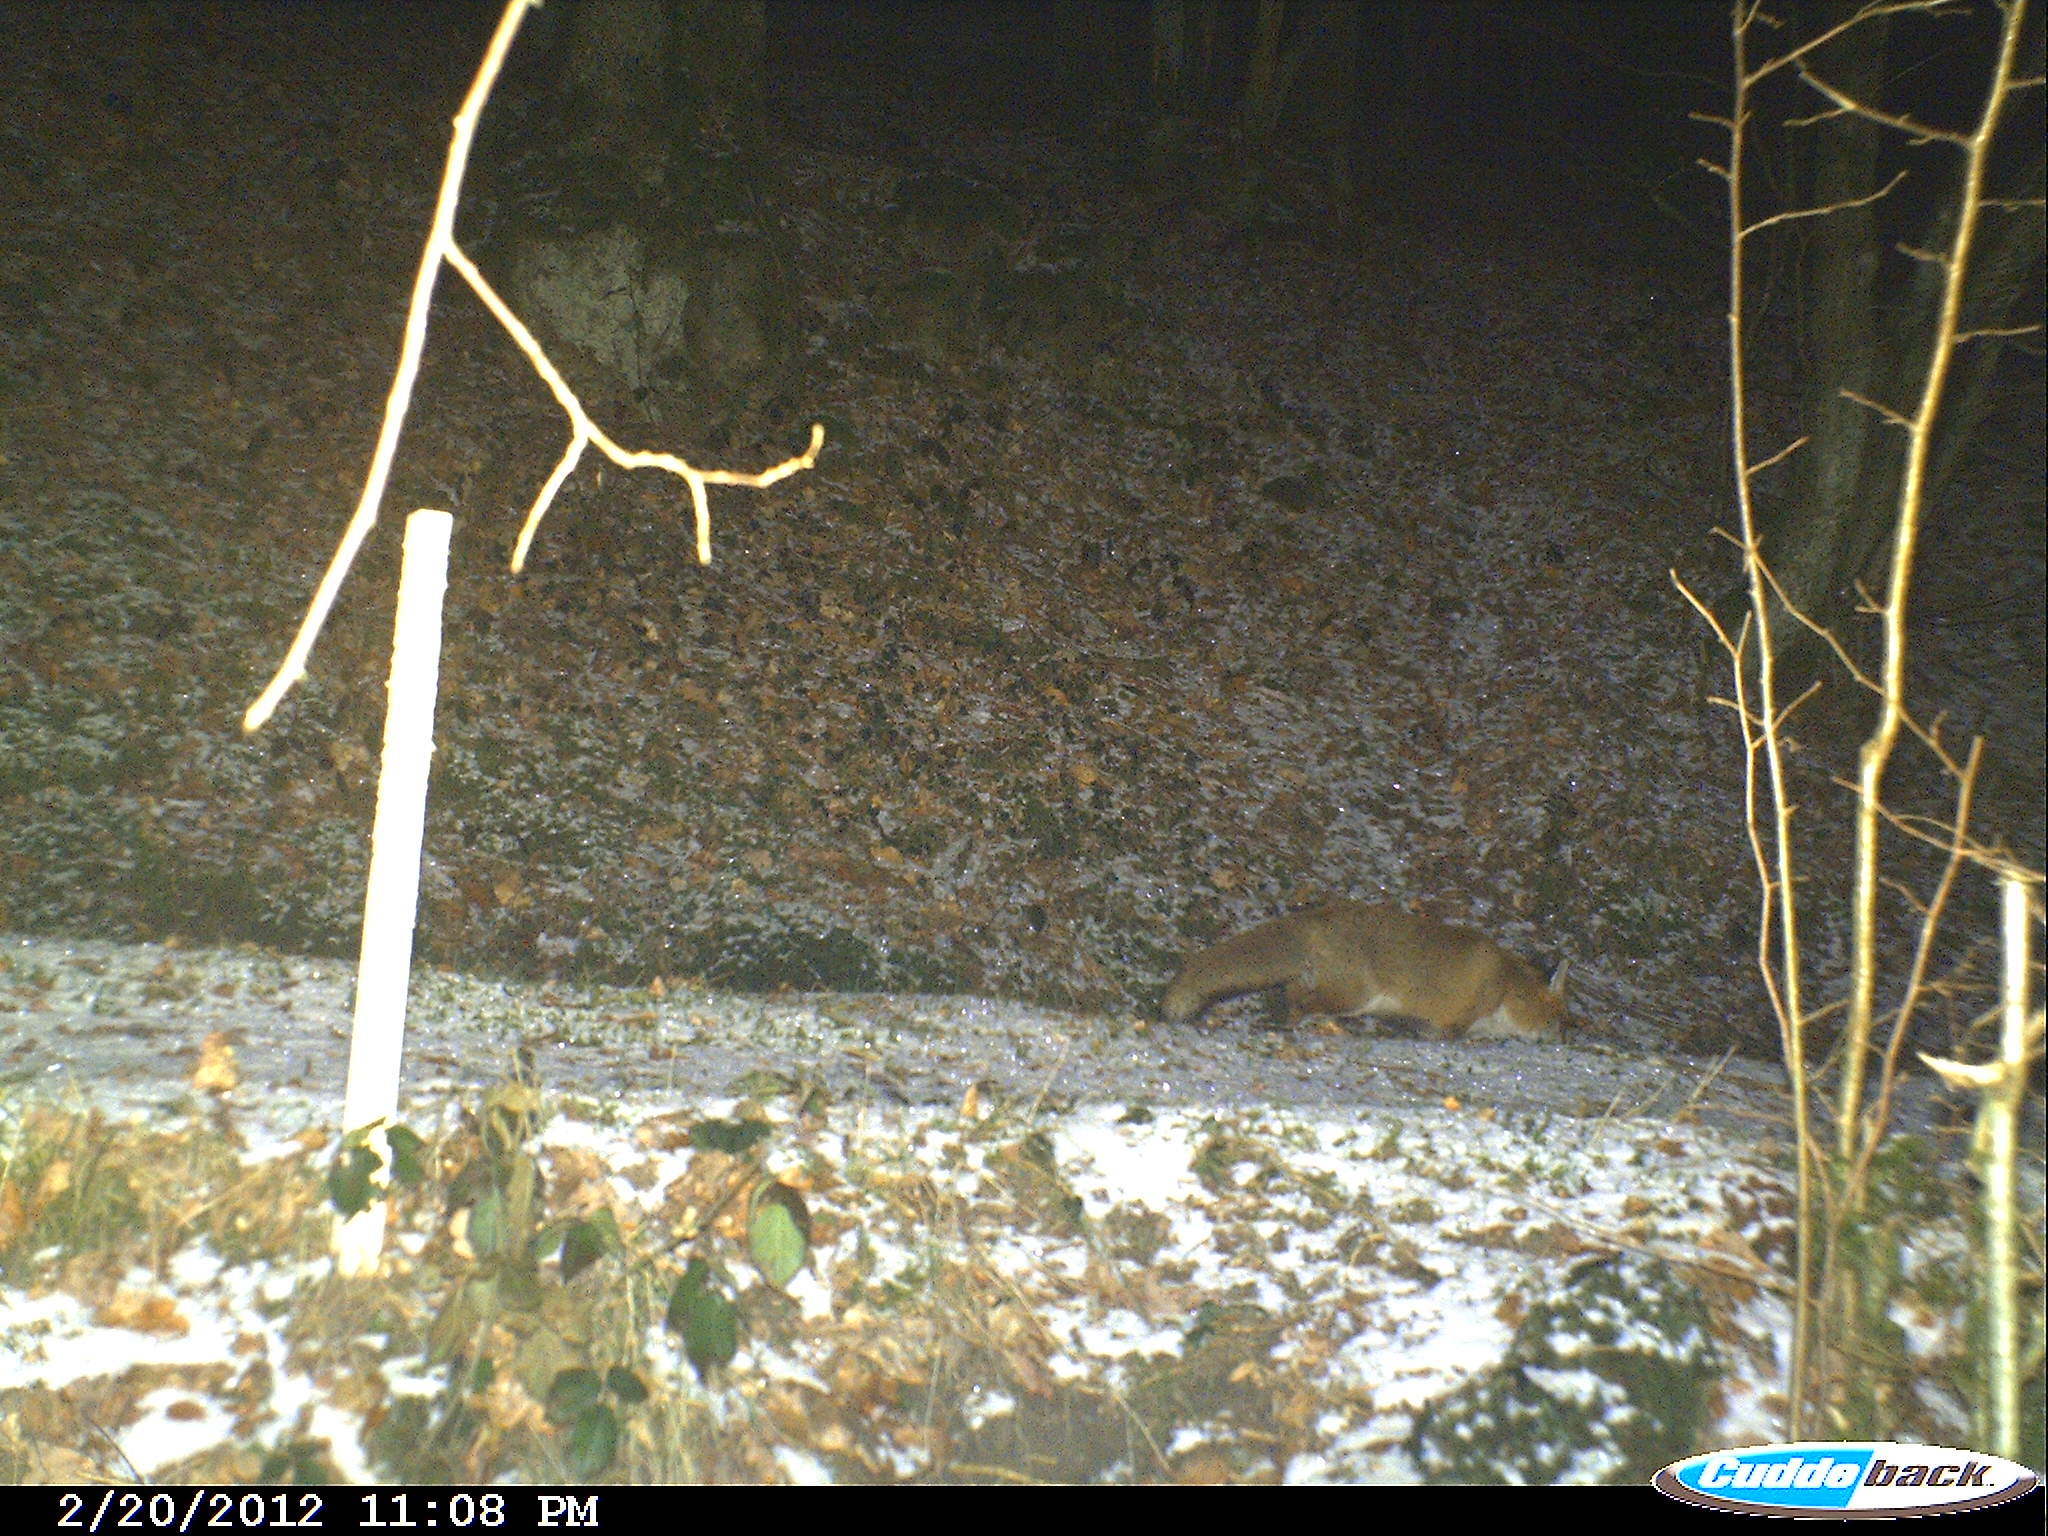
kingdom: Animalia
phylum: Chordata
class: Mammalia
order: Carnivora
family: Canidae
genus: Vulpes
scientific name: Vulpes vulpes
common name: Red fox
